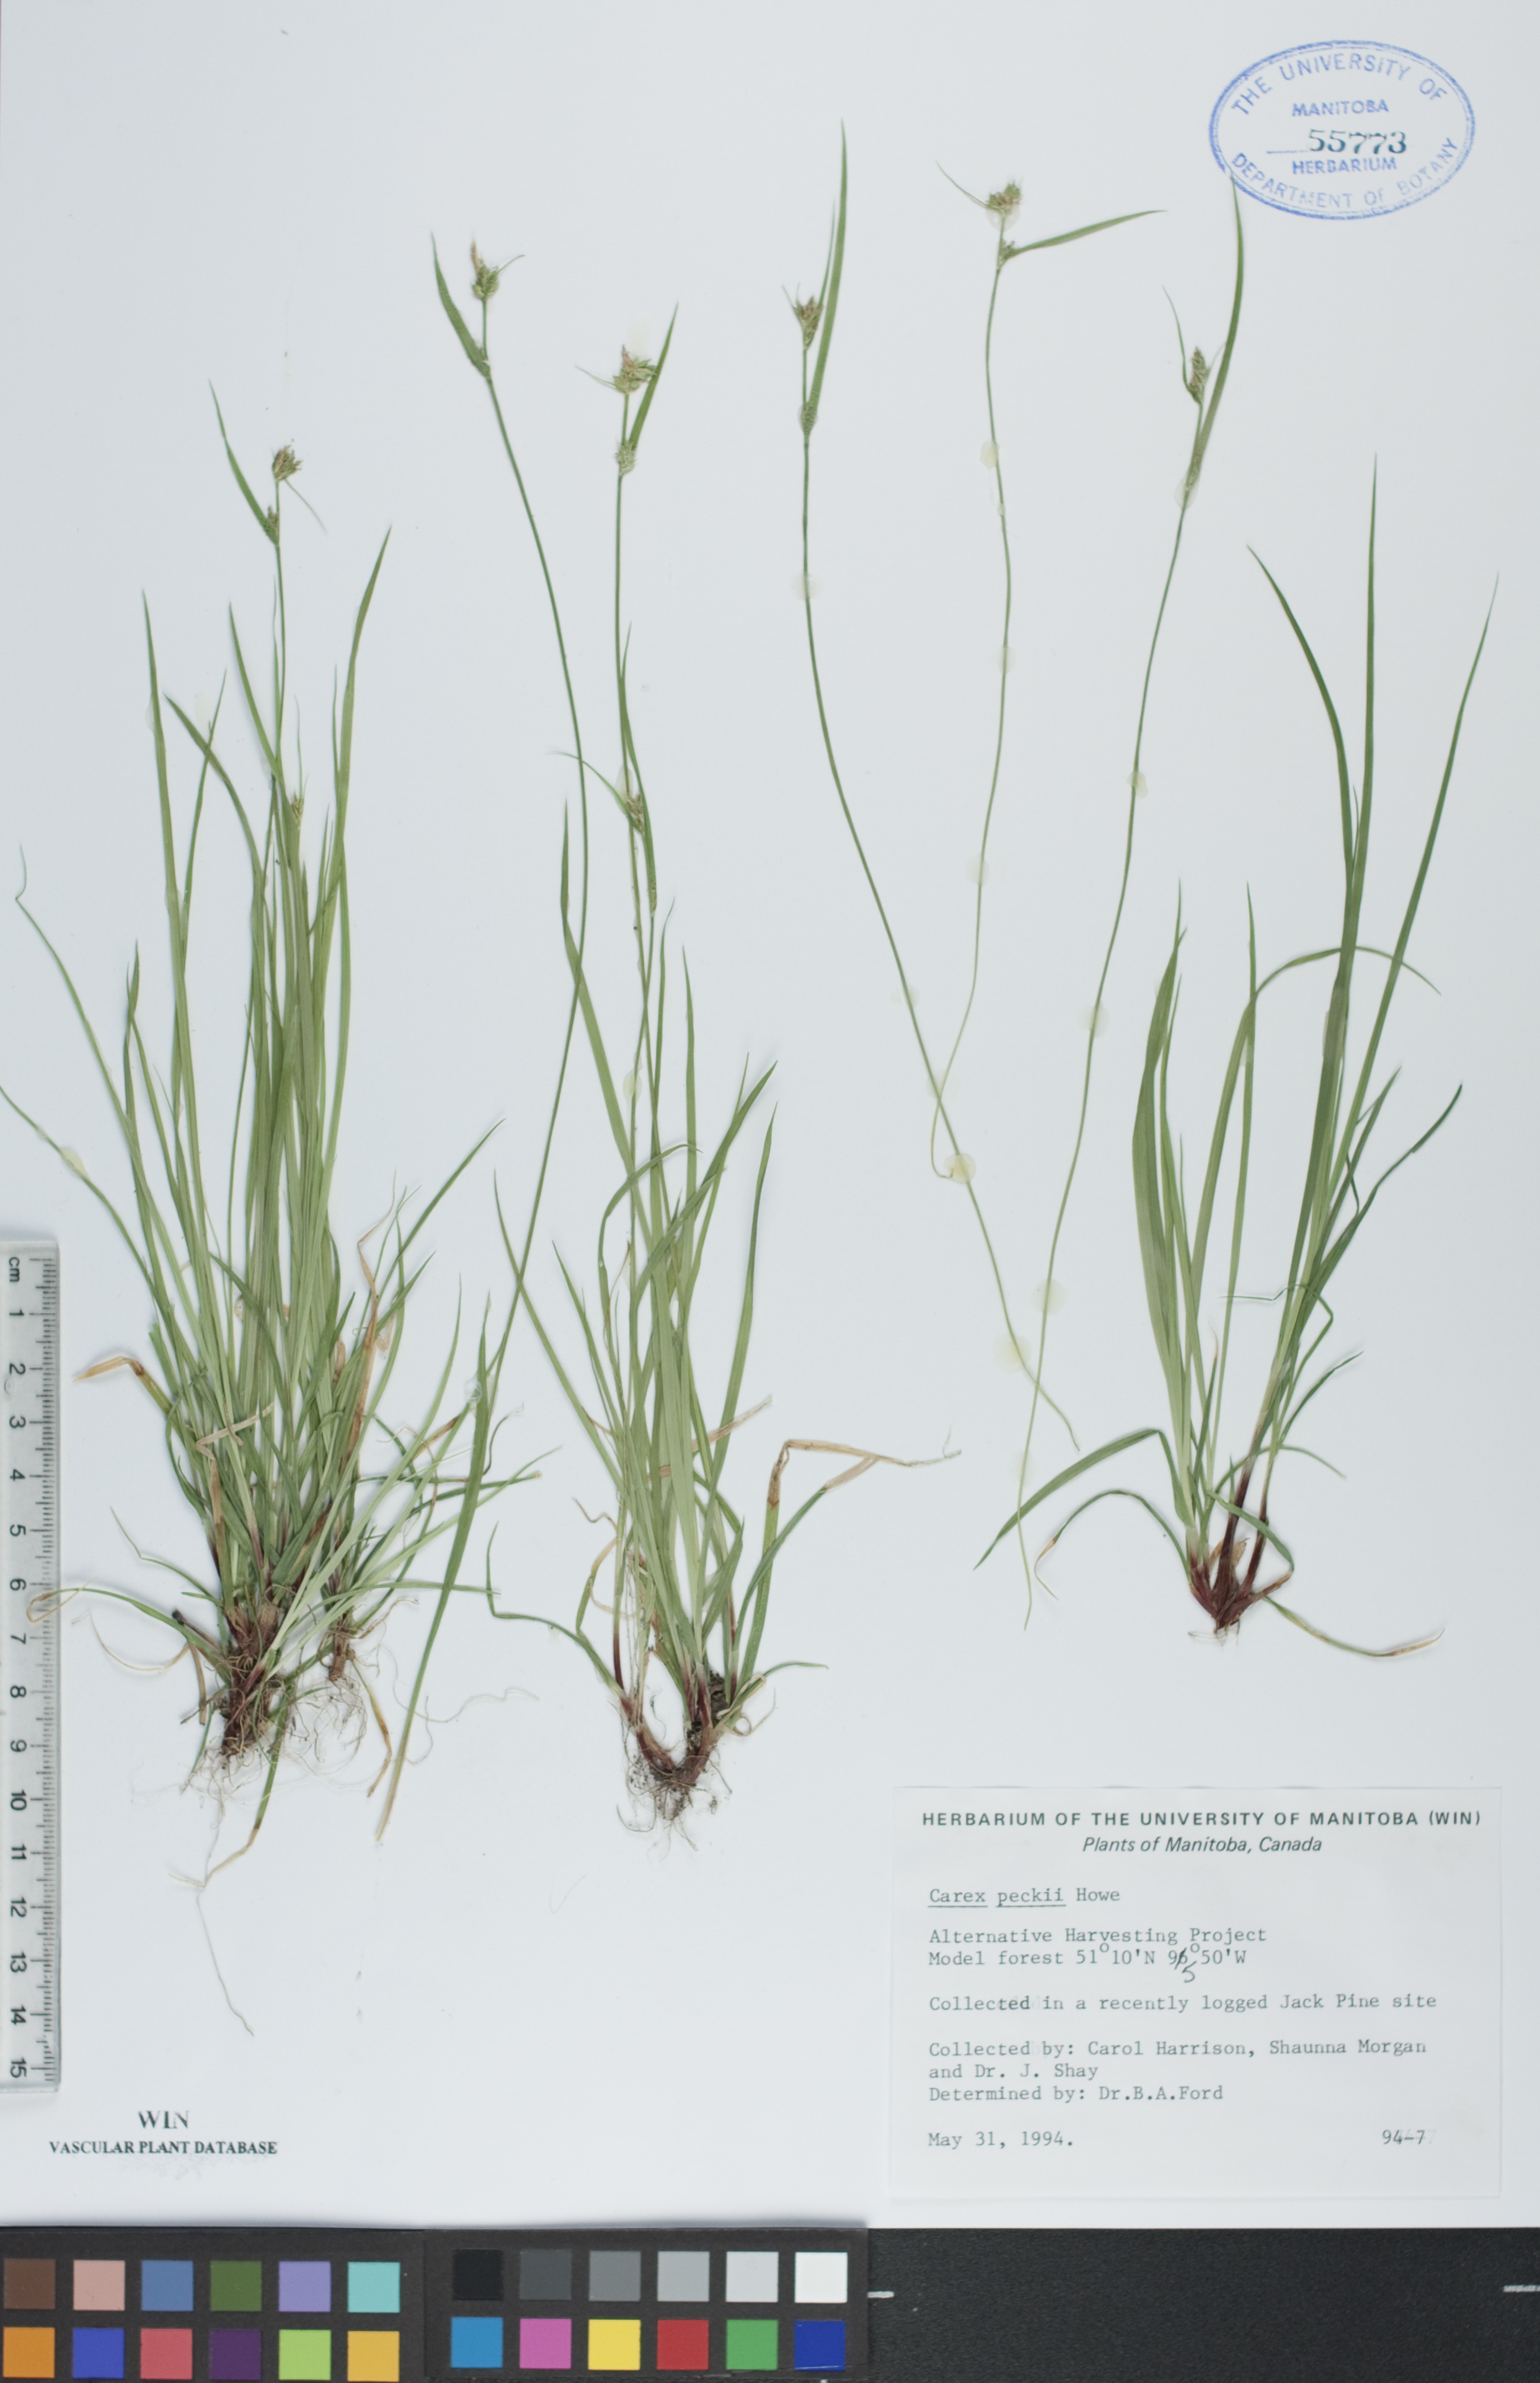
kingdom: Plantae
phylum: Tracheophyta
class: Liliopsida
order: Poales
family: Cyperaceae
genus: Carex
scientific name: Carex peckii
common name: Peck's oak sedge
